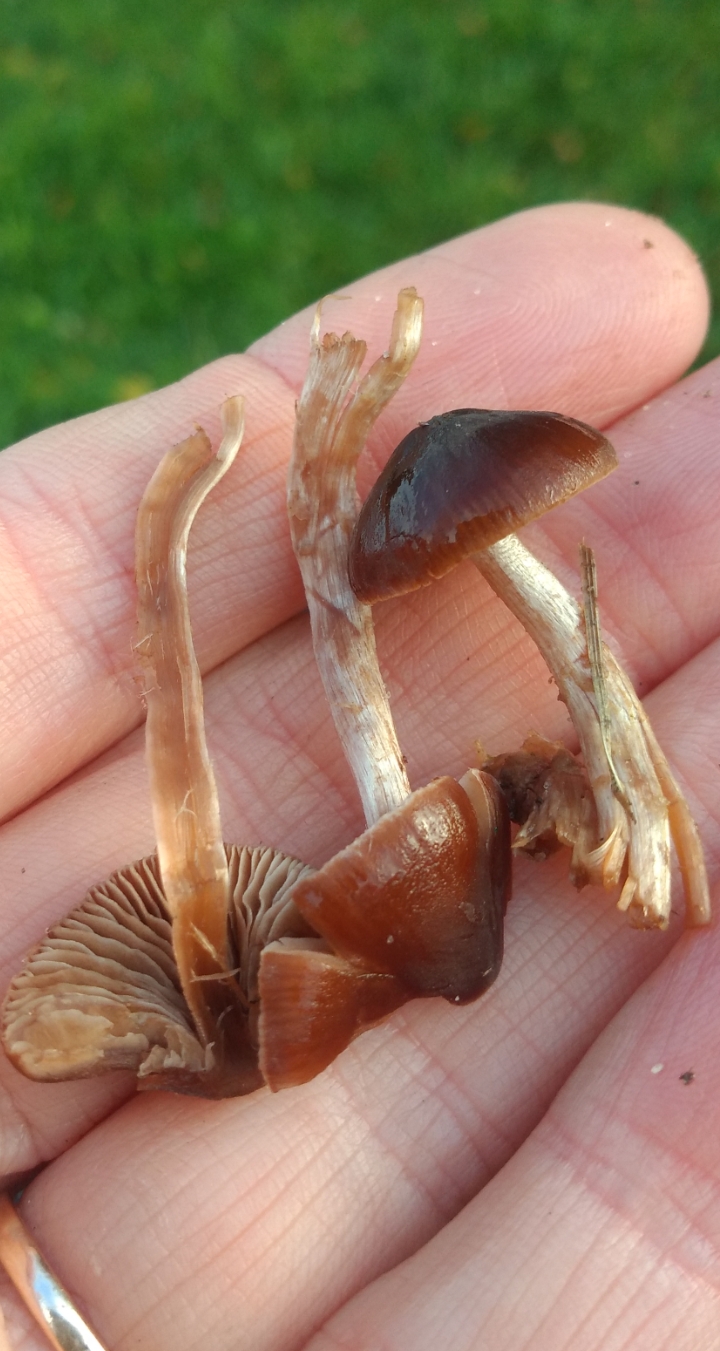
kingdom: Fungi
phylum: Basidiomycota
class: Agaricomycetes
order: Agaricales
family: Hymenogastraceae
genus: Naucoria
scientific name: Naucoria bohemica
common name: birke-knaphat
